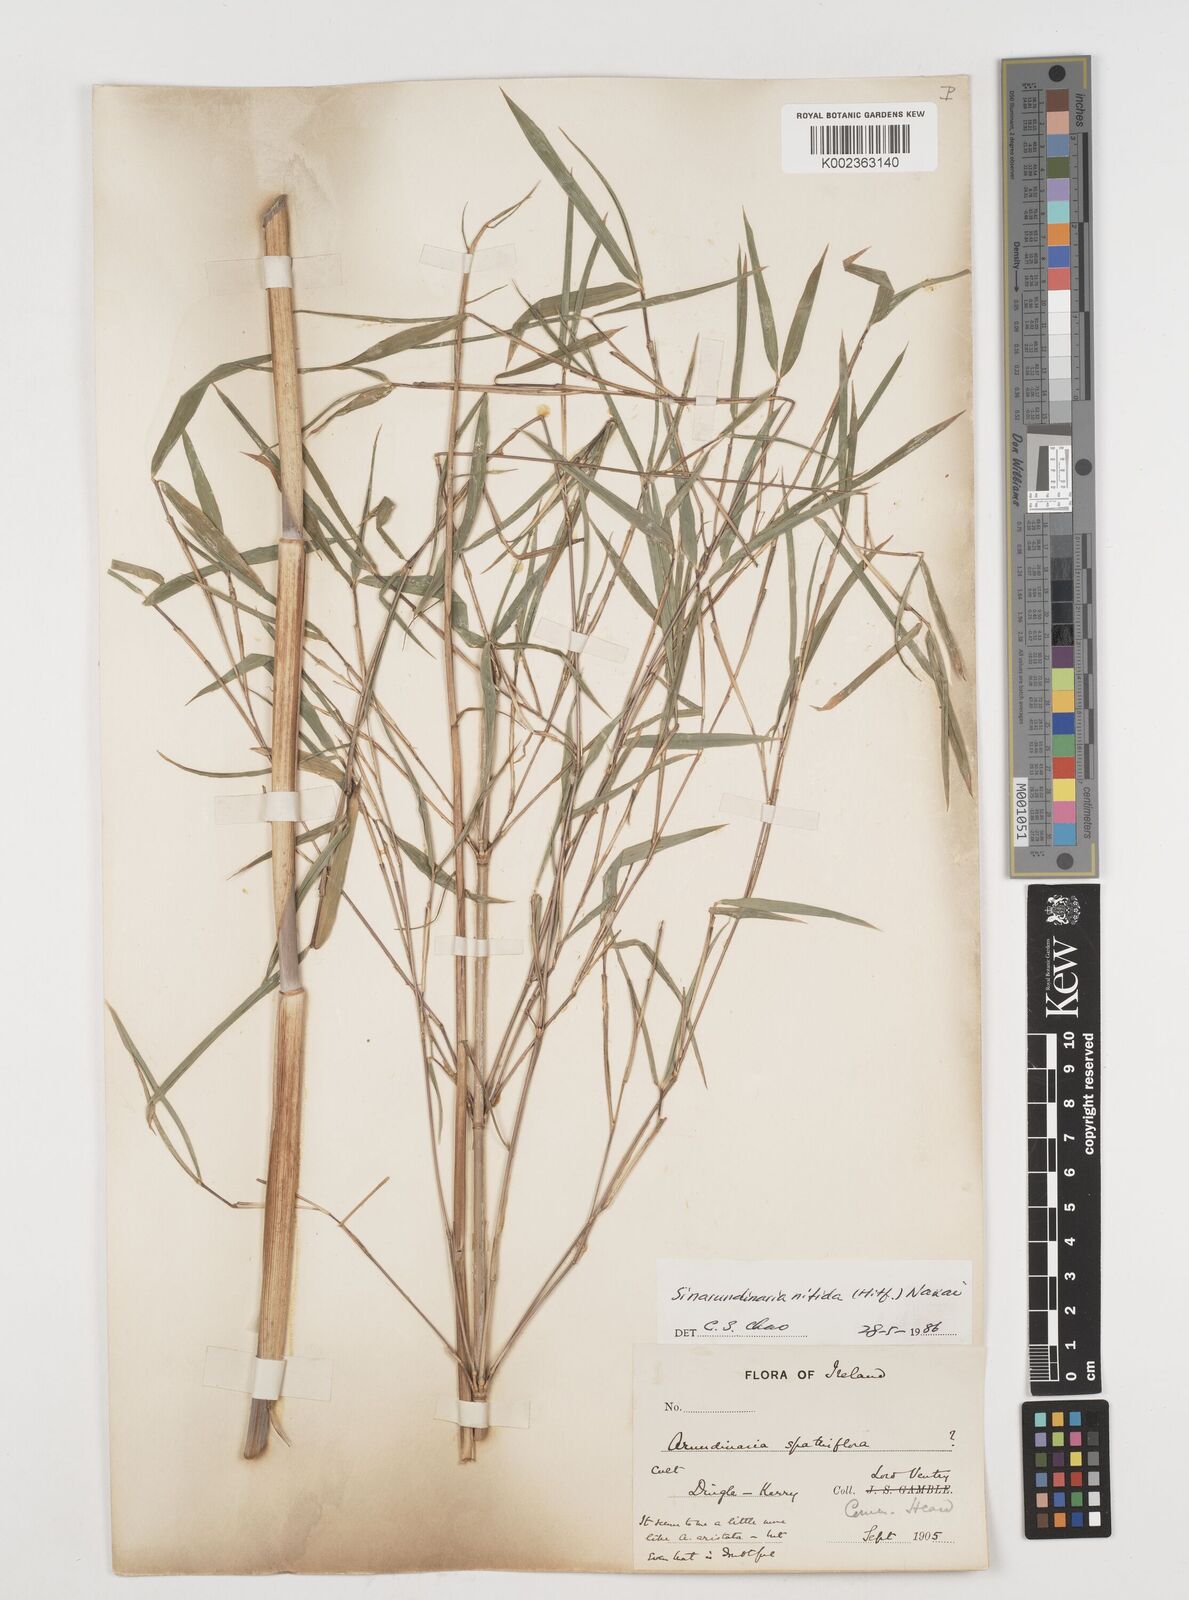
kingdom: Plantae
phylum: Tracheophyta
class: Liliopsida
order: Poales
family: Poaceae
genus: Fargesia
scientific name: Fargesia nitida ex
